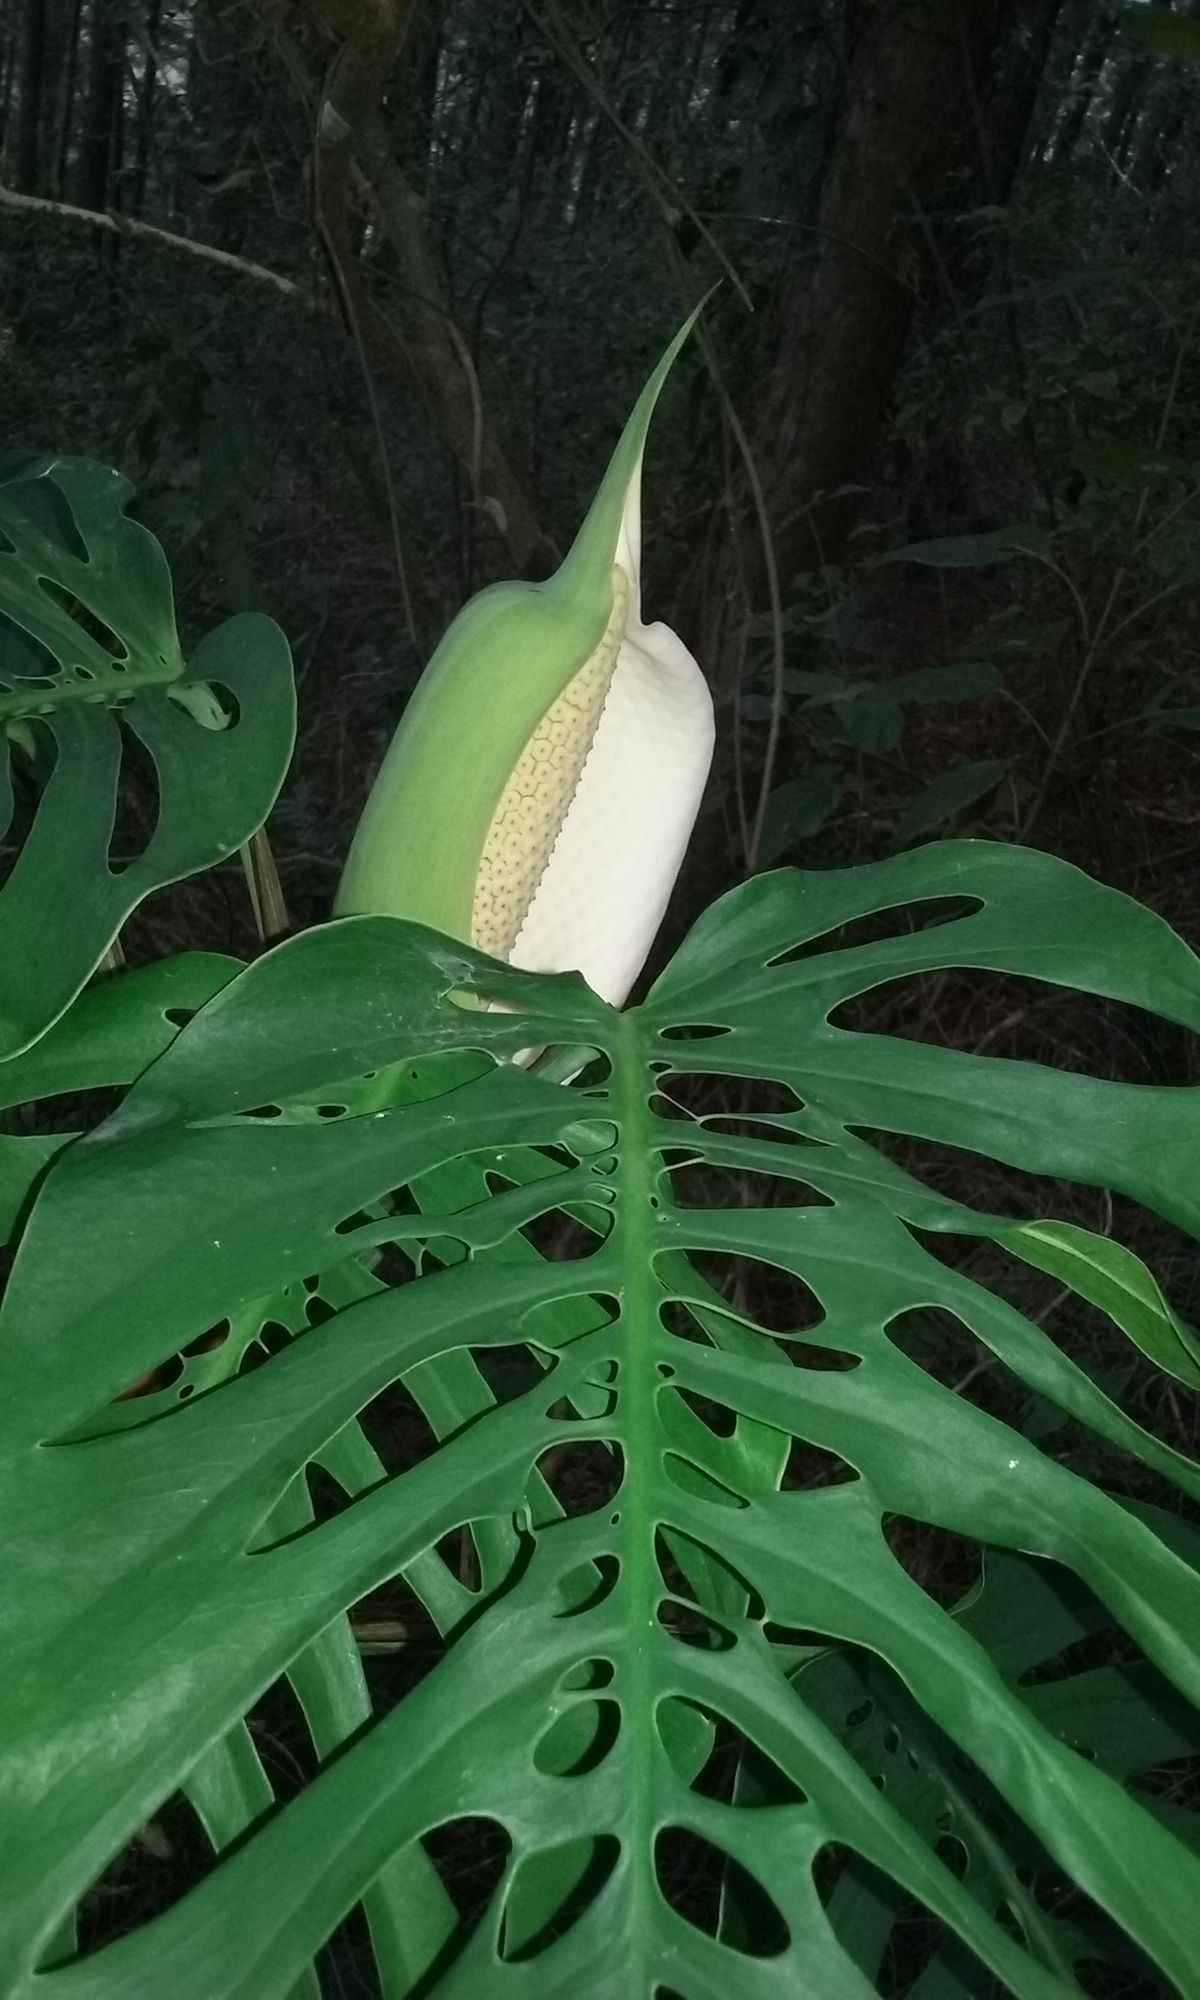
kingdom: Plantae
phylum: Tracheophyta
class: Liliopsida
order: Alismatales
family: Araceae
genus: Monstera
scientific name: Monstera siltepecana
